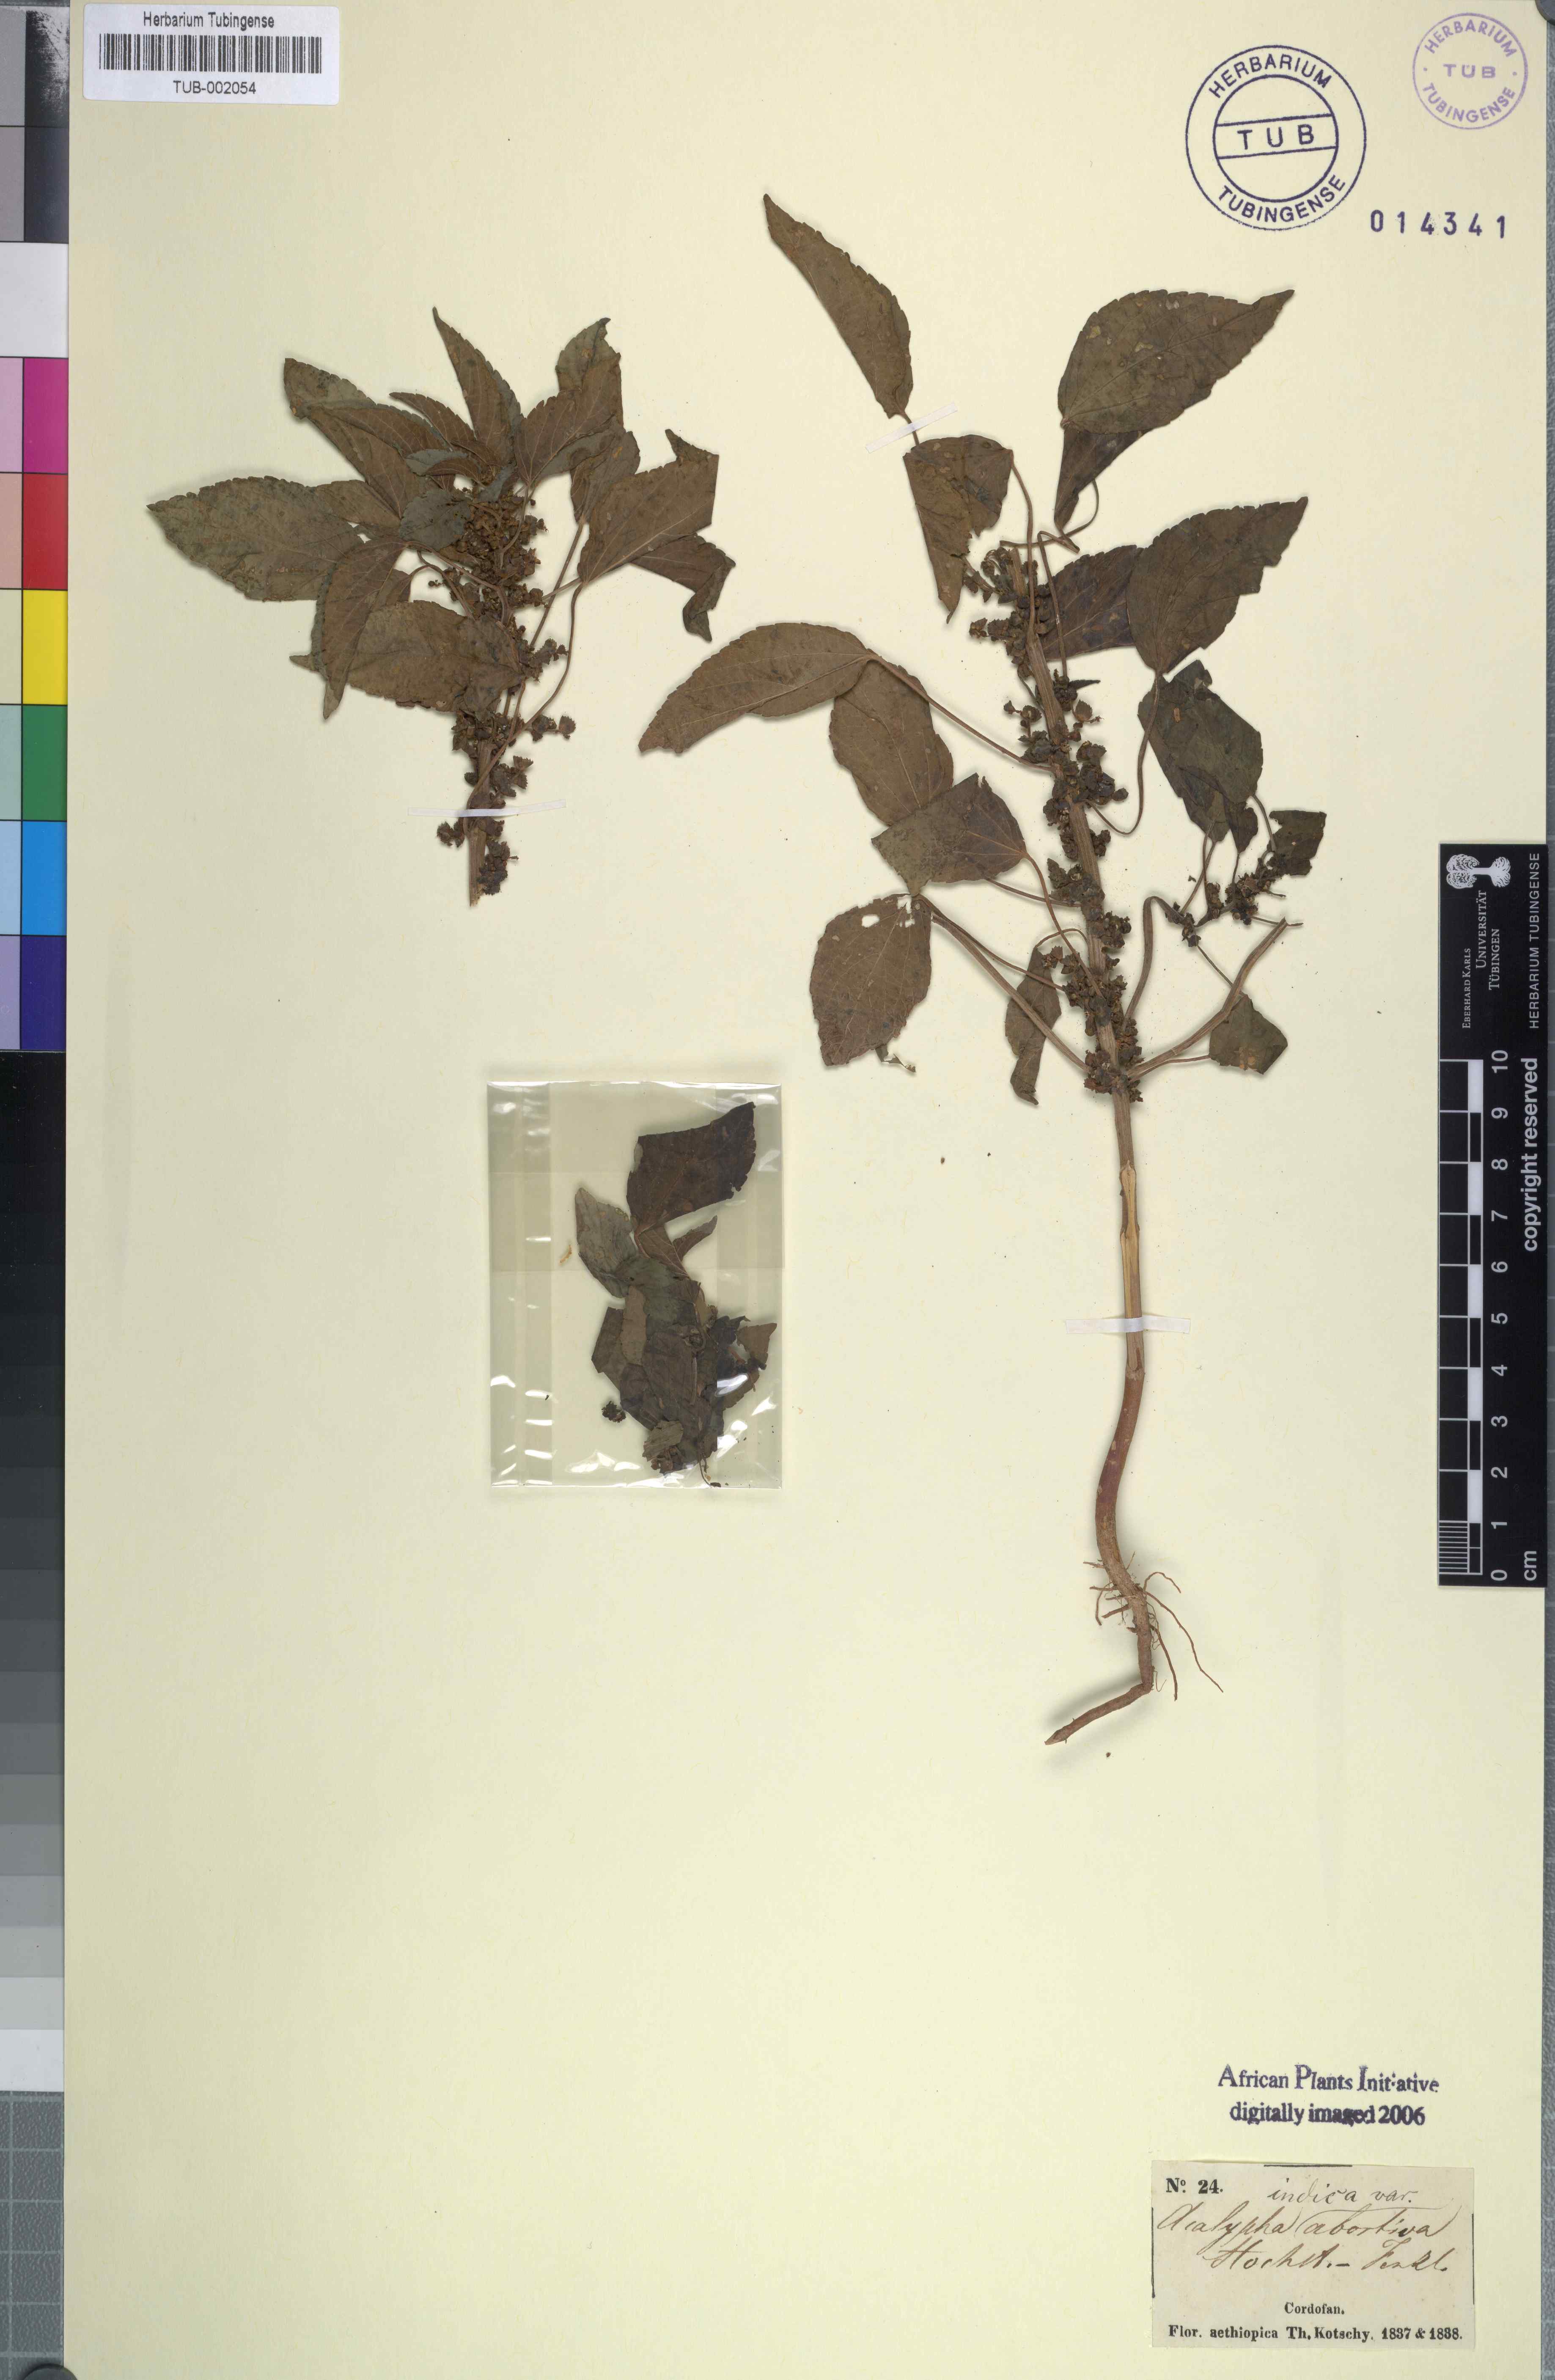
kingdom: Plantae
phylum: Tracheophyta
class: Magnoliopsida
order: Malpighiales
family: Euphorbiaceae
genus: Acalypha
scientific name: Acalypha crenata
